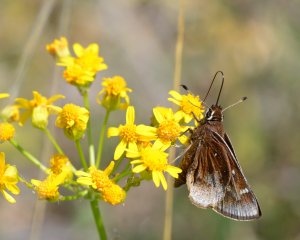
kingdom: Animalia
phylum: Arthropoda
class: Insecta
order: Lepidoptera
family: Hesperiidae
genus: Atrytonopsis
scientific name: Atrytonopsis hianna
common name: Dusted Skipper
